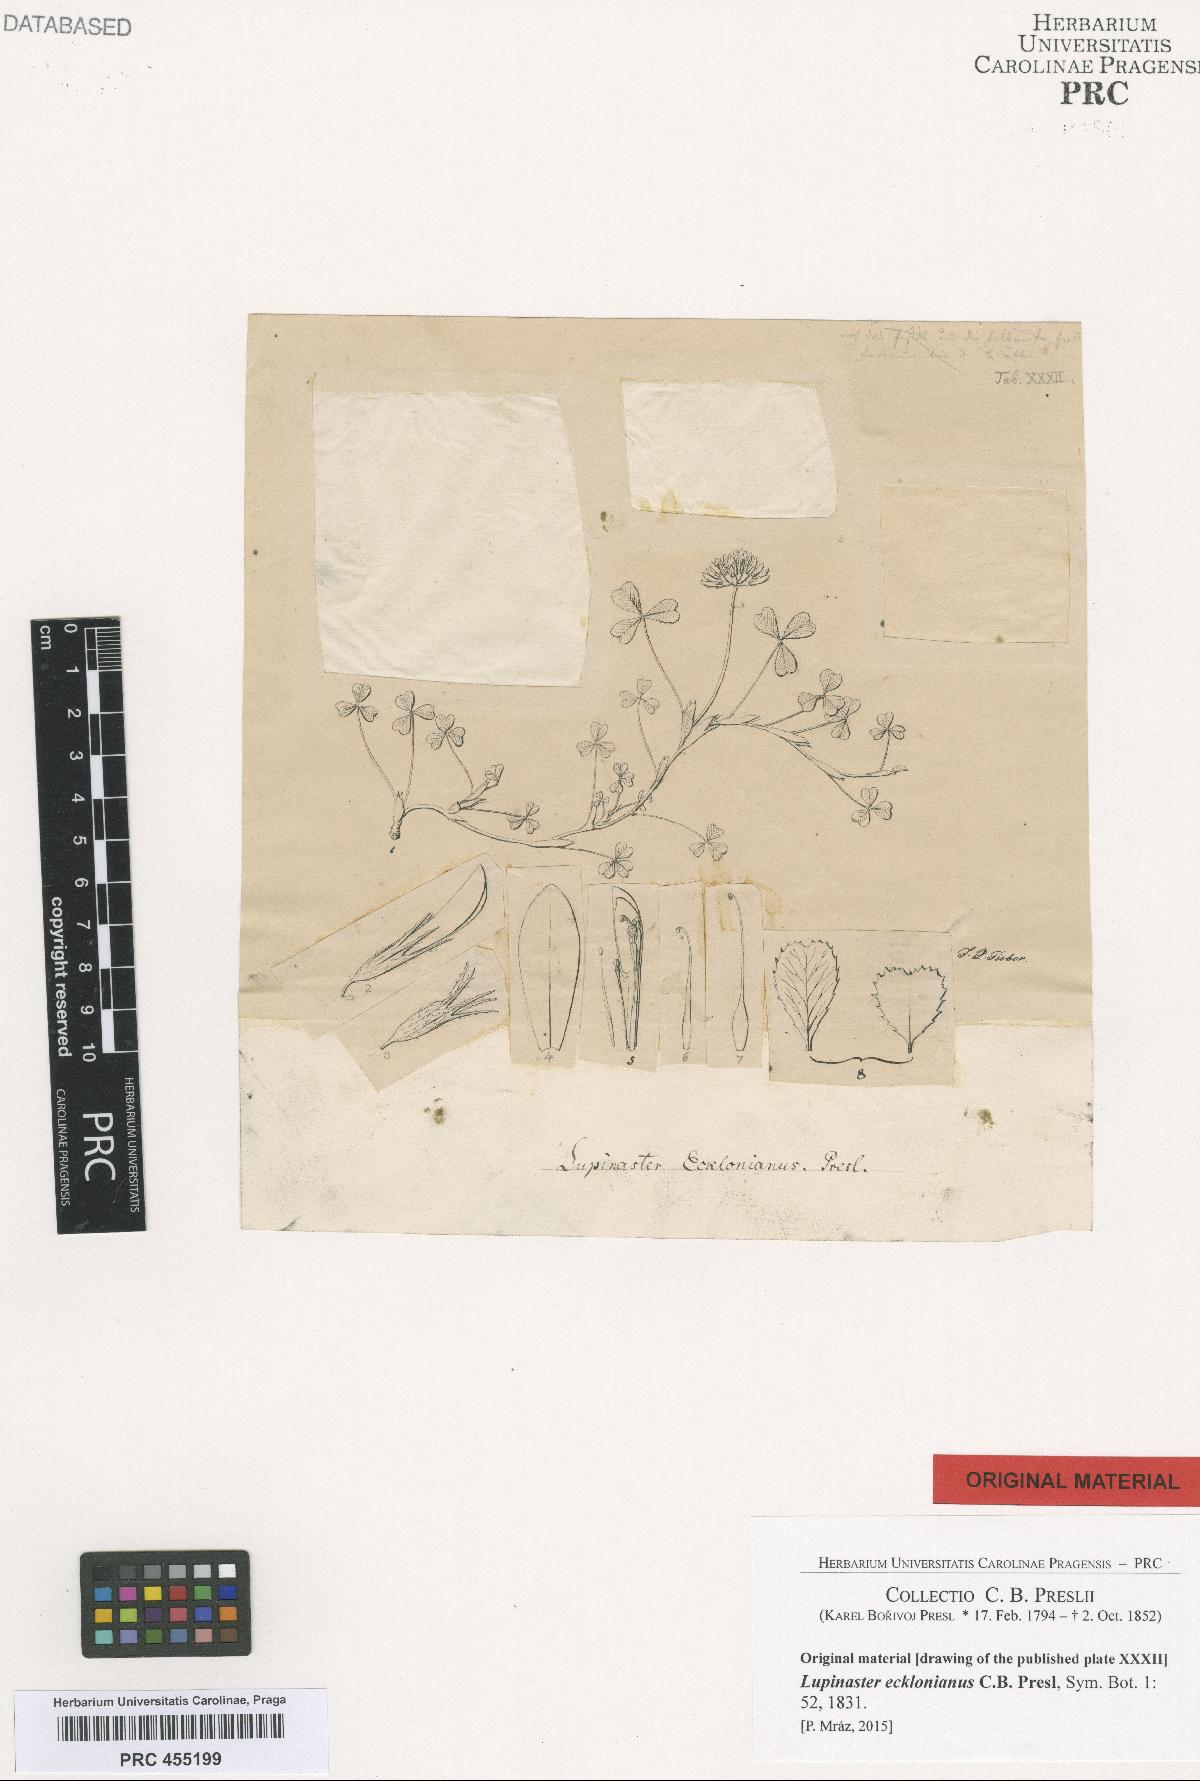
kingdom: Plantae
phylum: Tracheophyta
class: Magnoliopsida
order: Fabales
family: Fabaceae
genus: Trifolium
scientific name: Trifolium burchellianum
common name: Burchell's clover
